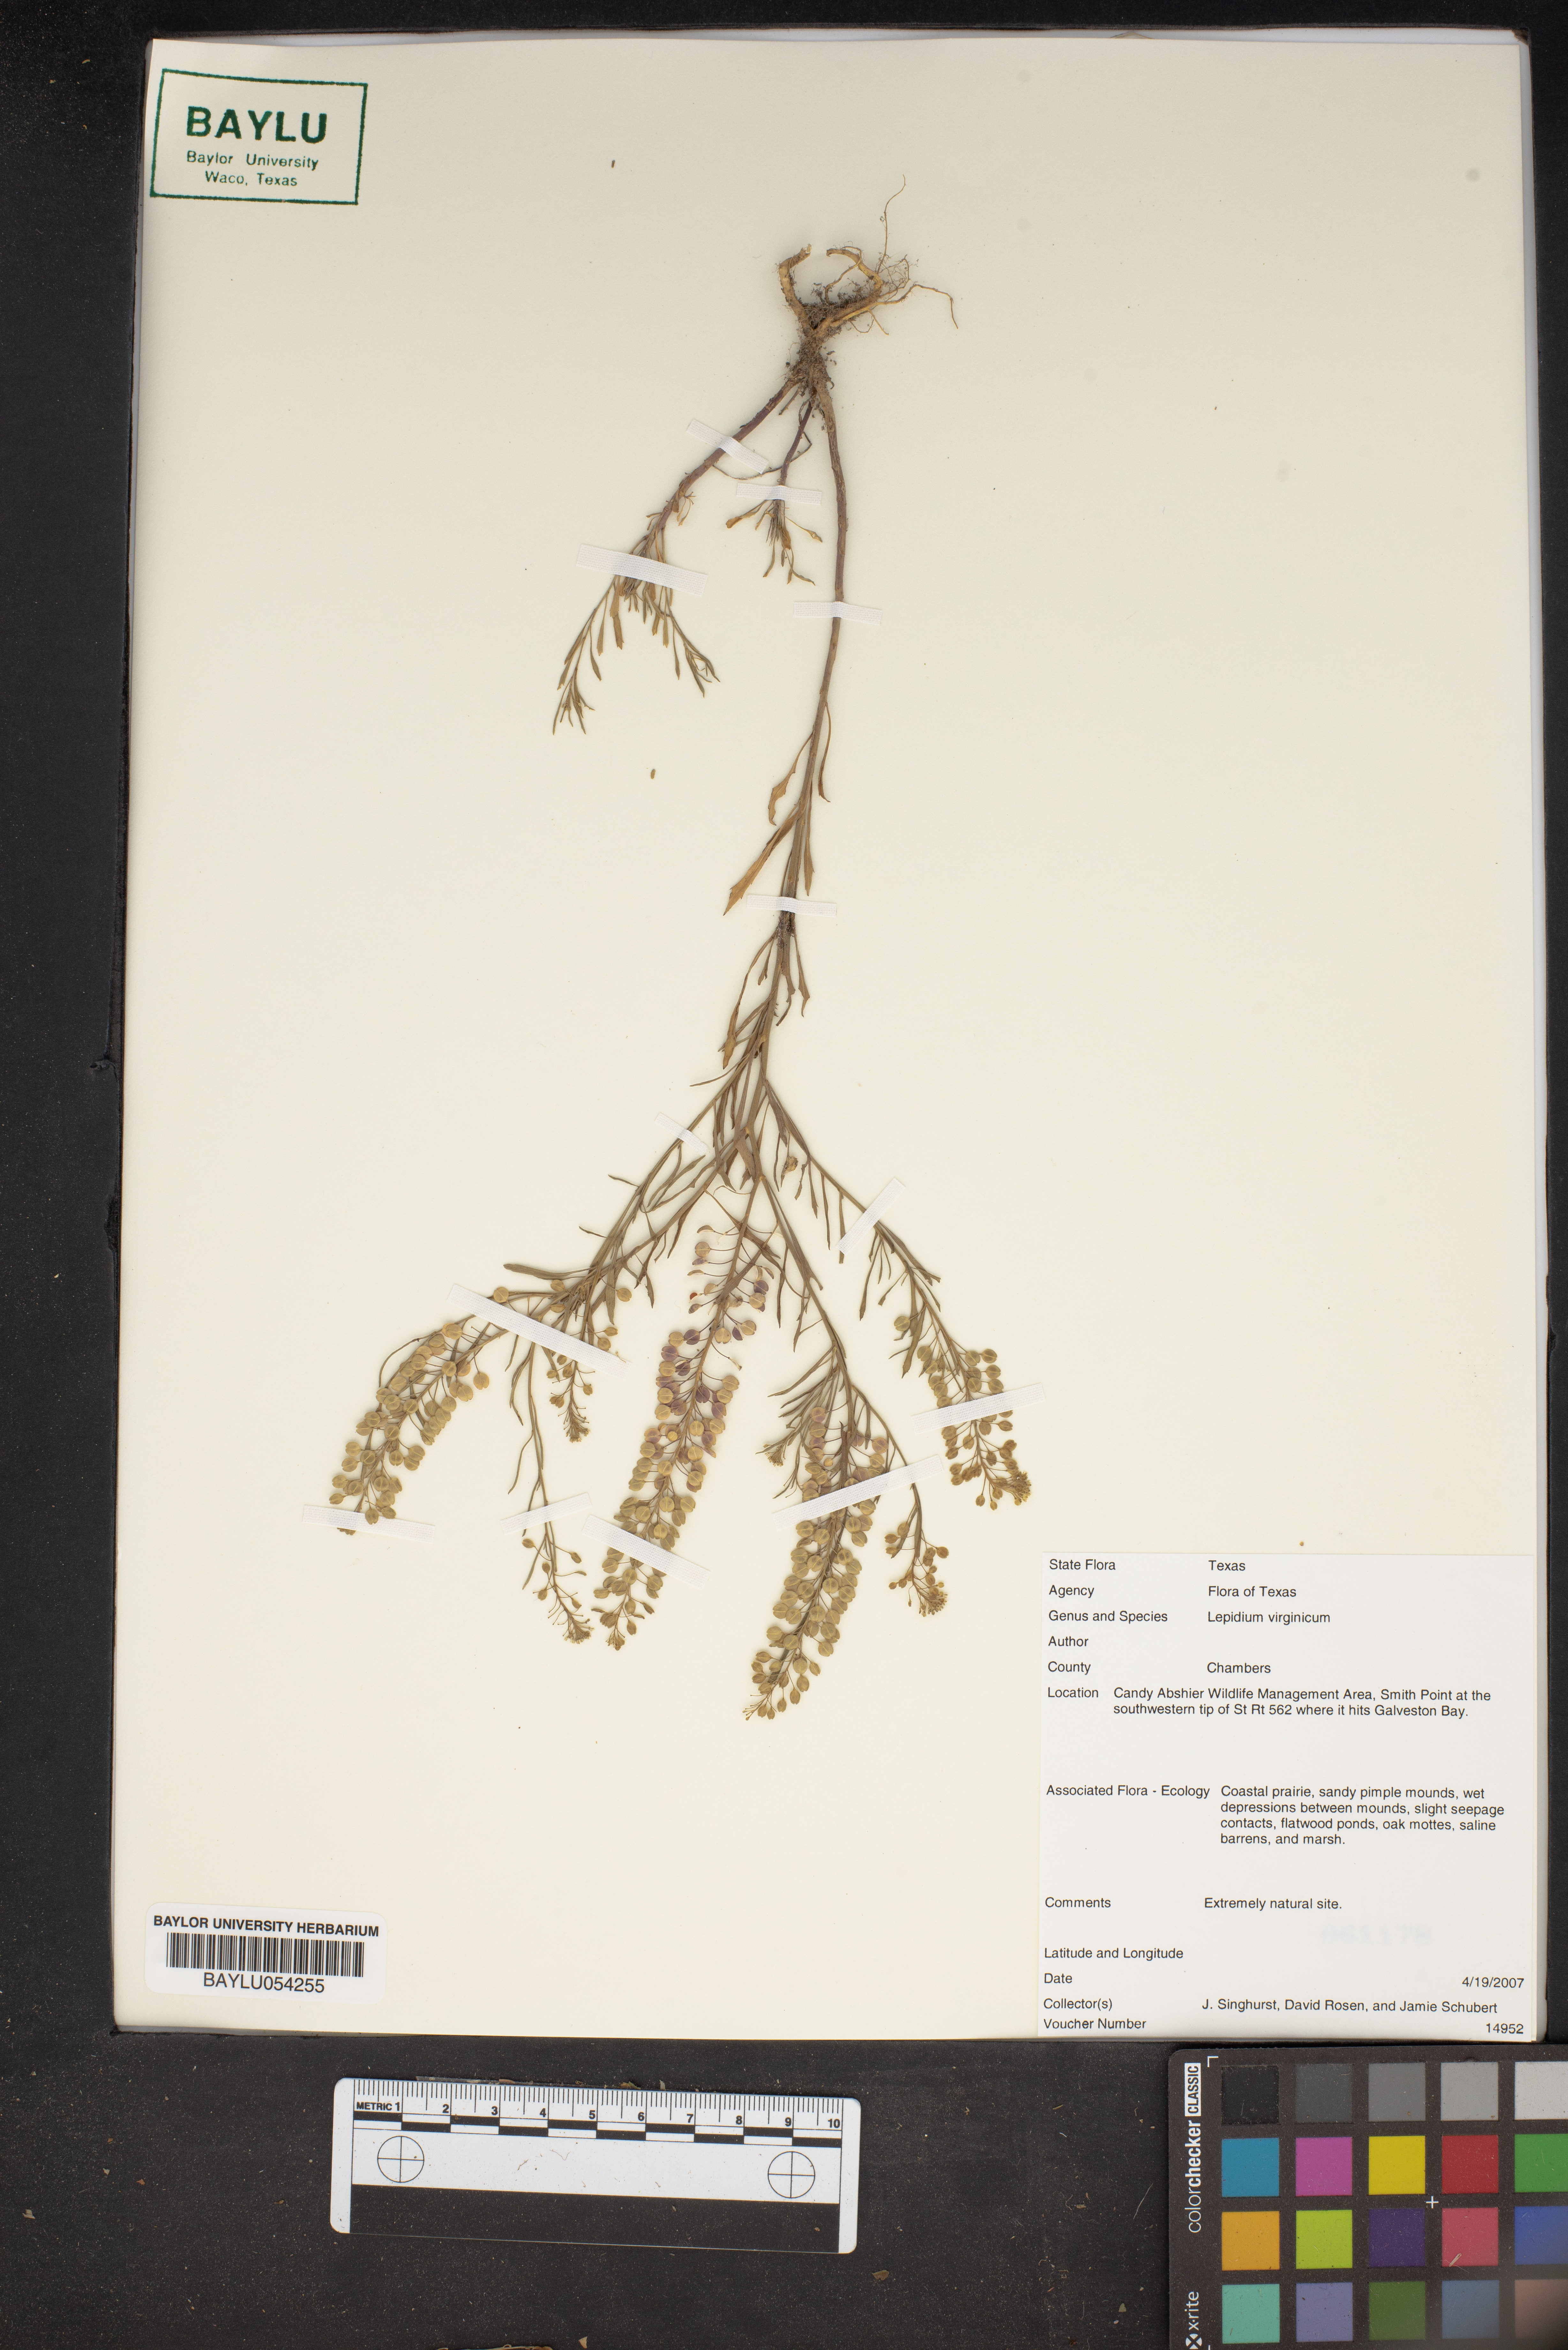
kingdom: Plantae
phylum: Tracheophyta
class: Magnoliopsida
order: Brassicales
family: Brassicaceae
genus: Lepidium
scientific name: Lepidium virginicum
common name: Least pepperwort
